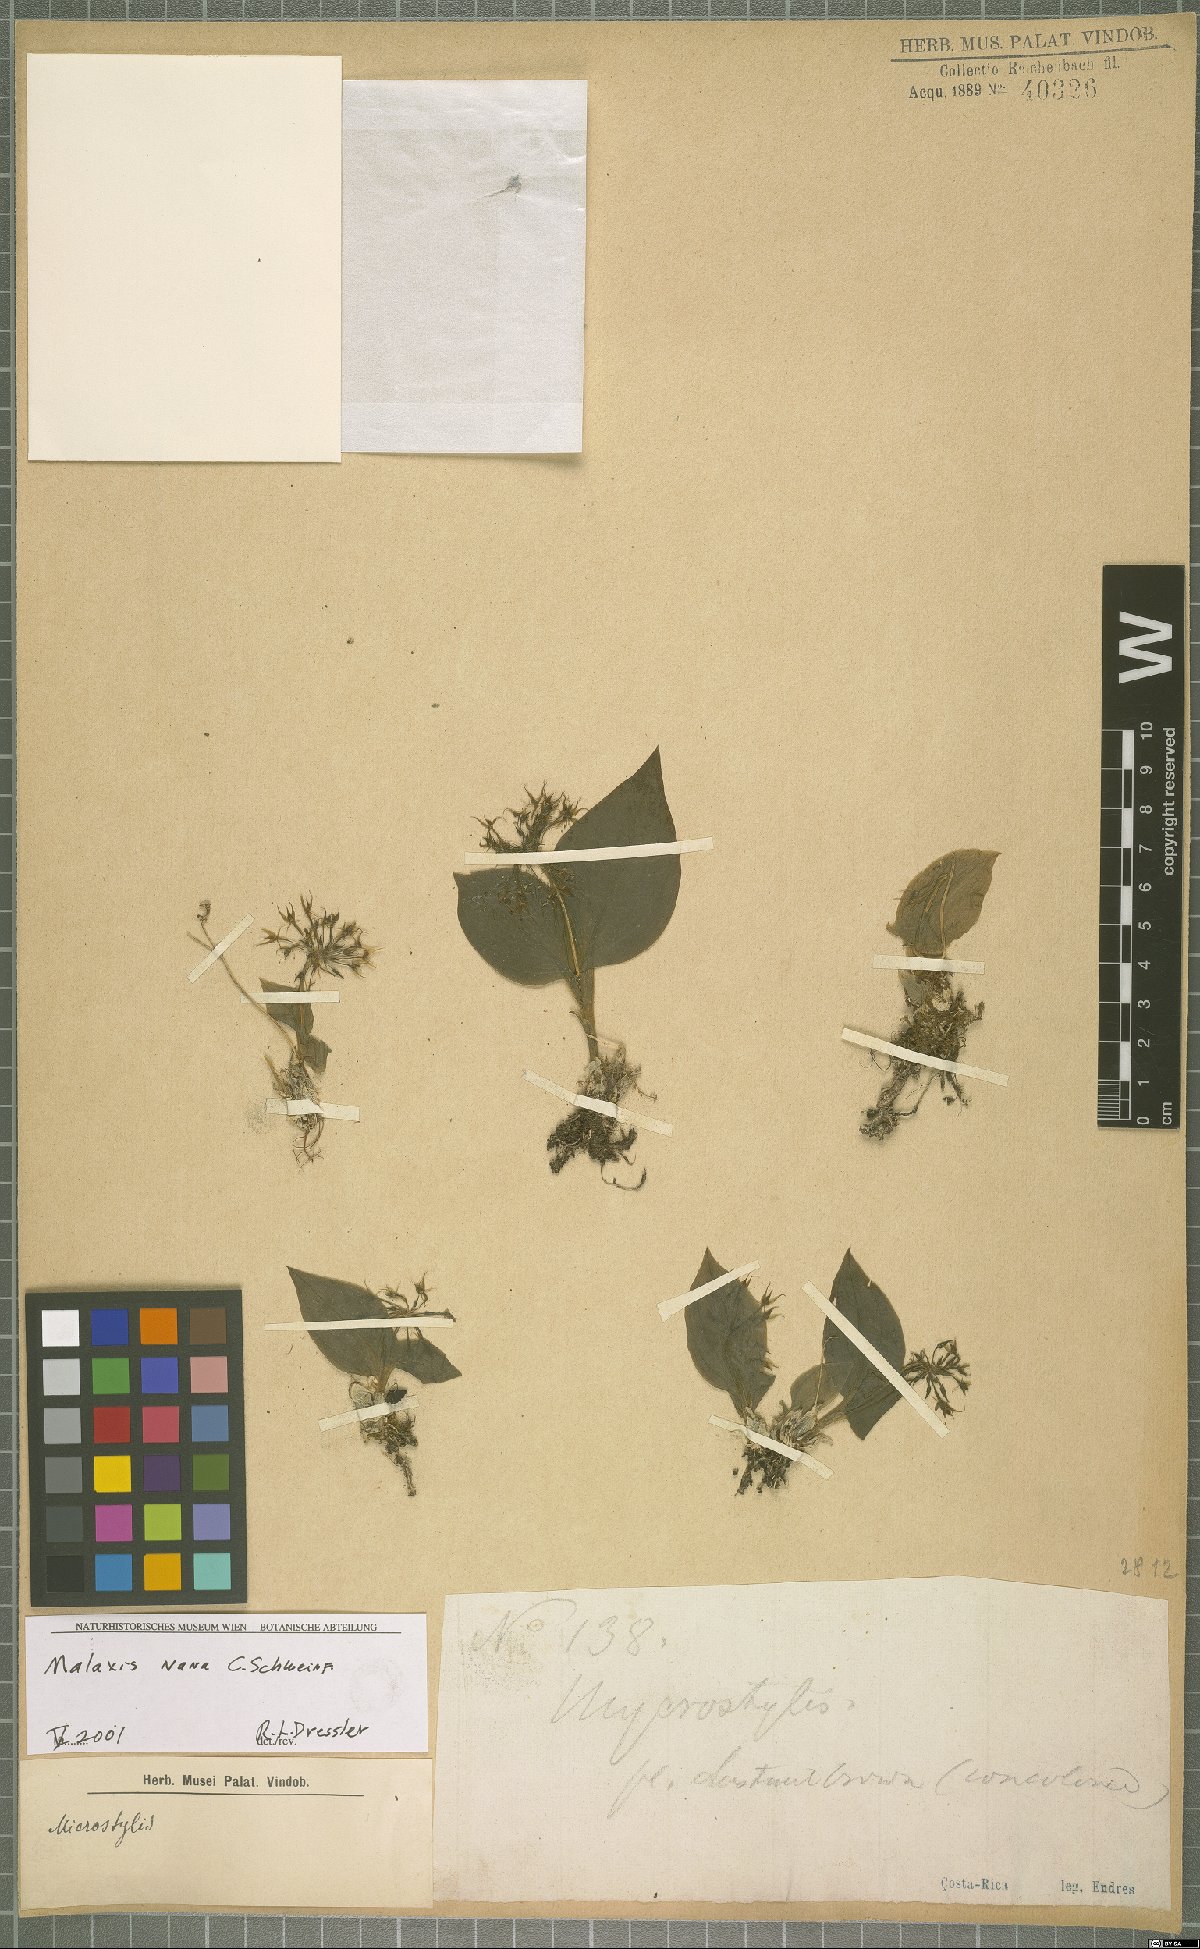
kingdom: Plantae
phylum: Tracheophyta
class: Liliopsida
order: Asparagales
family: Orchidaceae
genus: Malaxis
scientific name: Malaxis nana
